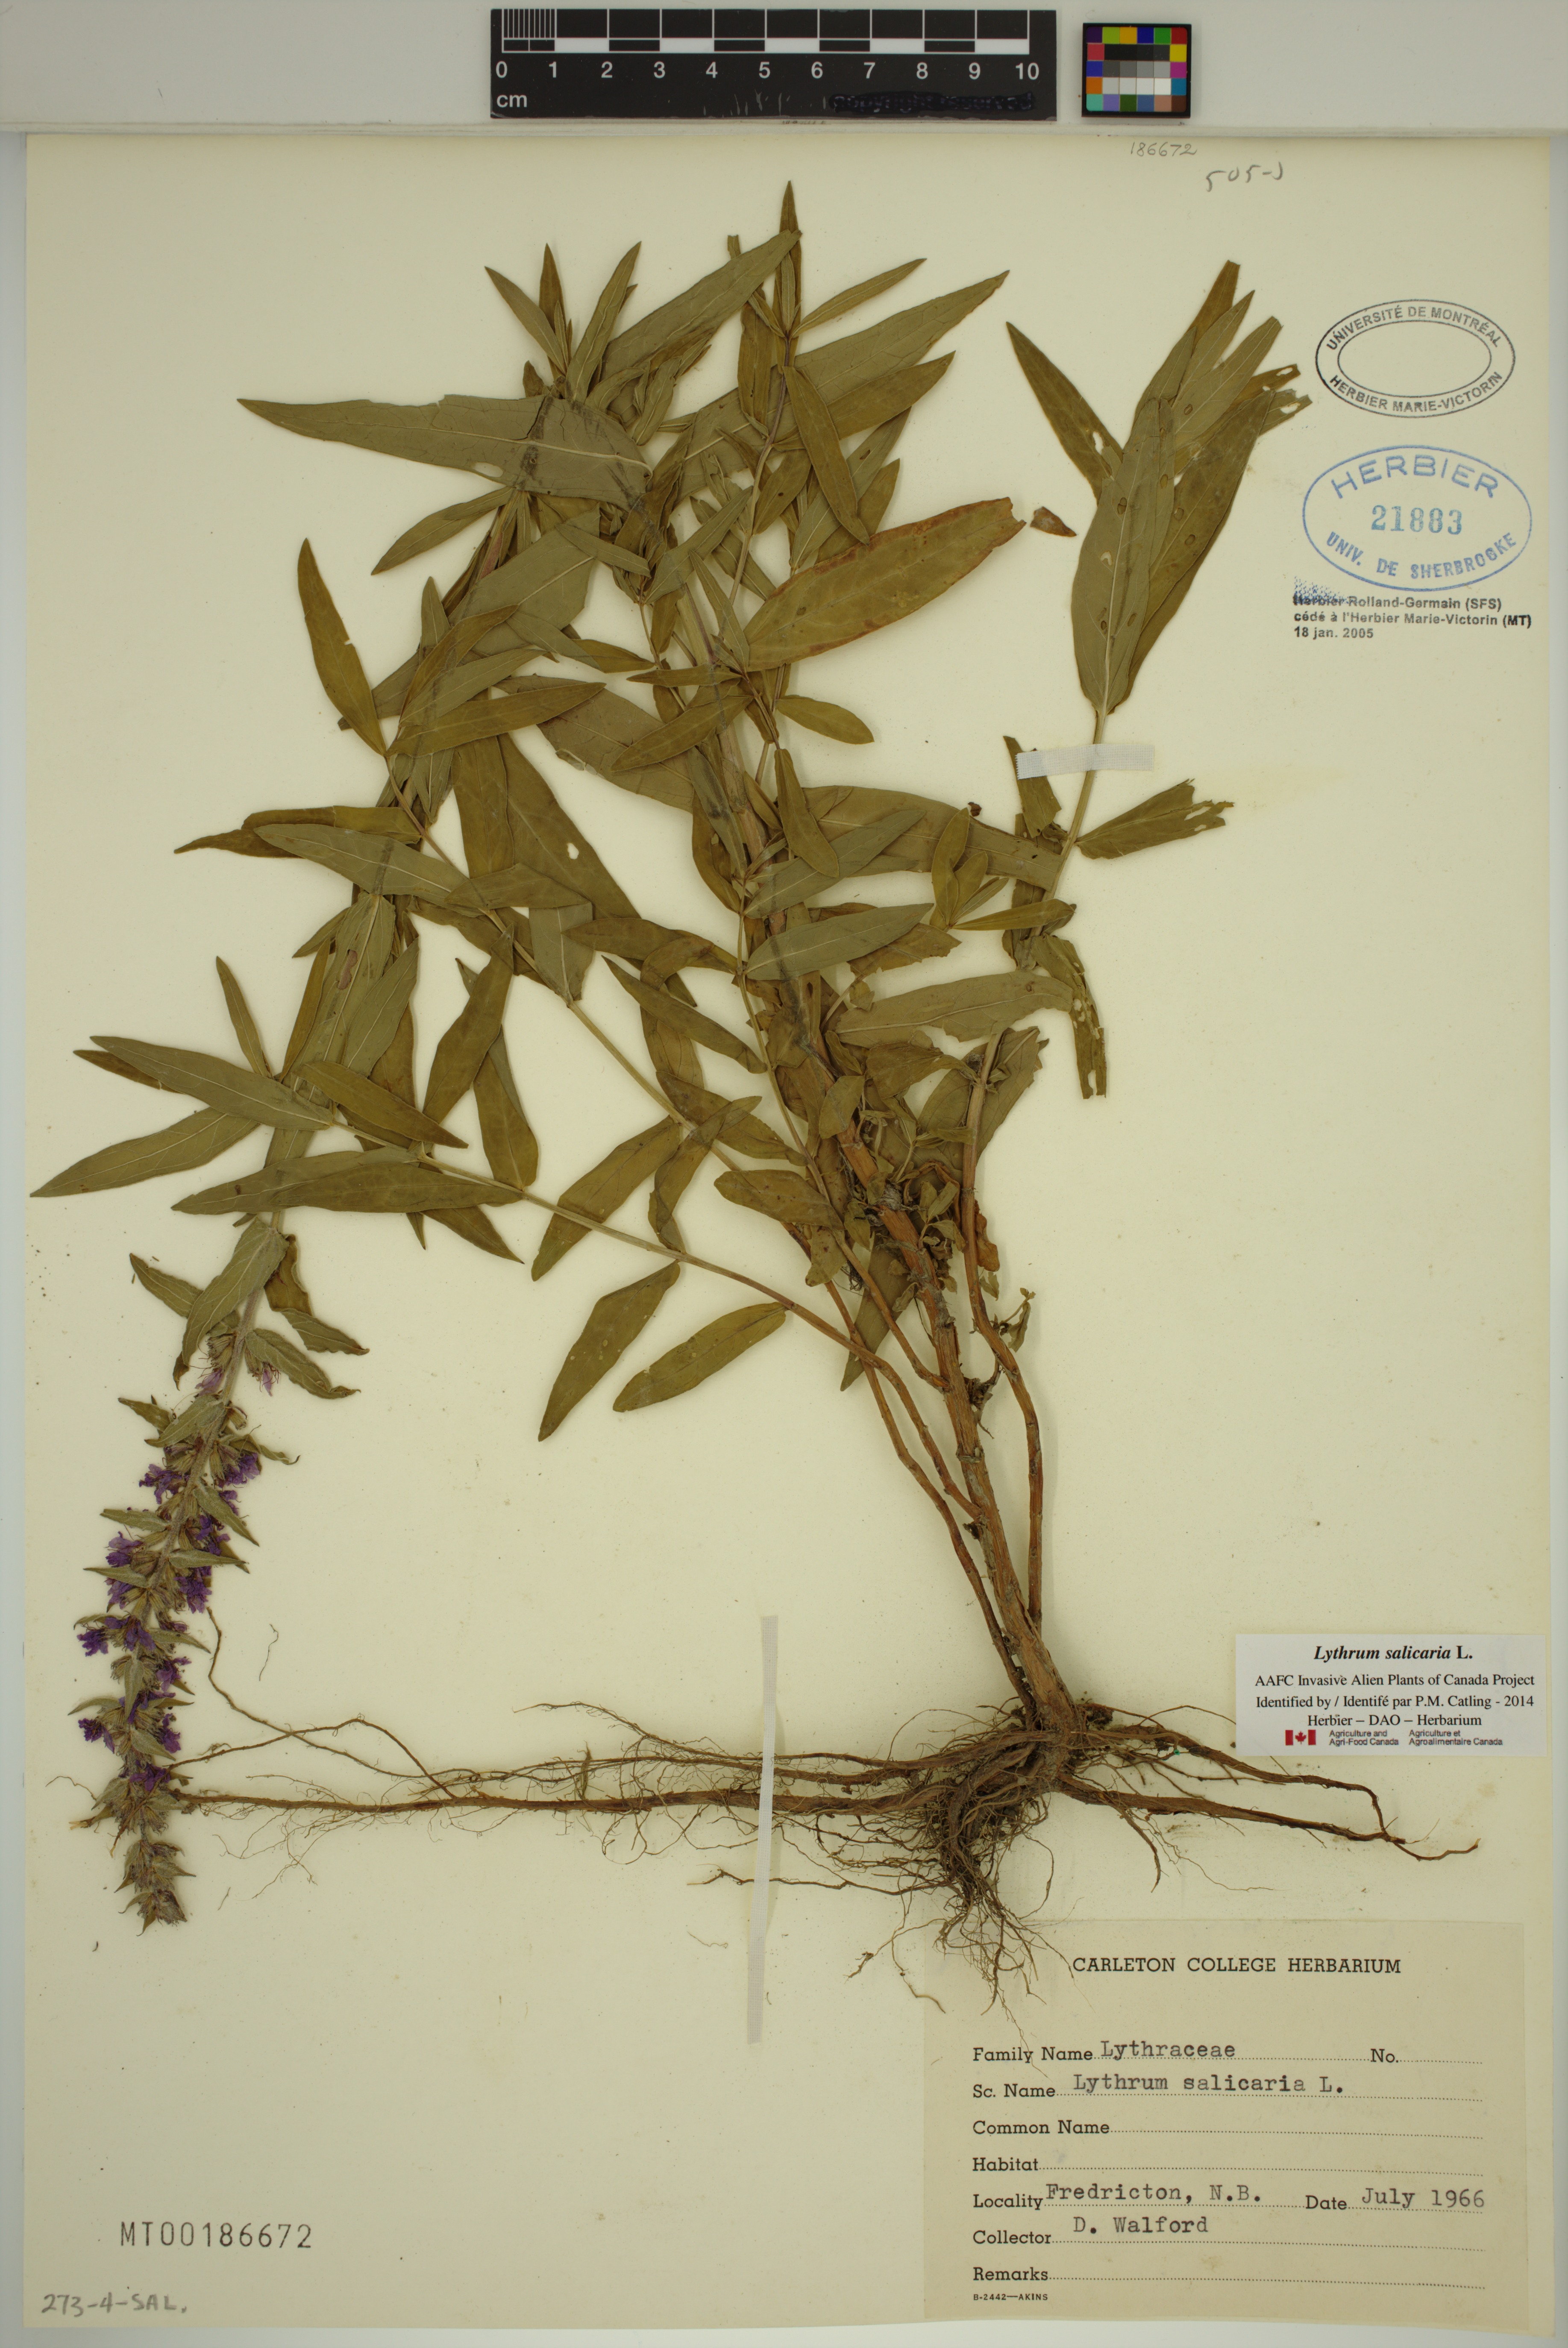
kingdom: Plantae
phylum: Tracheophyta
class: Magnoliopsida
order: Myrtales
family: Lythraceae
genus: Lythrum
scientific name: Lythrum salicaria
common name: Purple loosestrife
